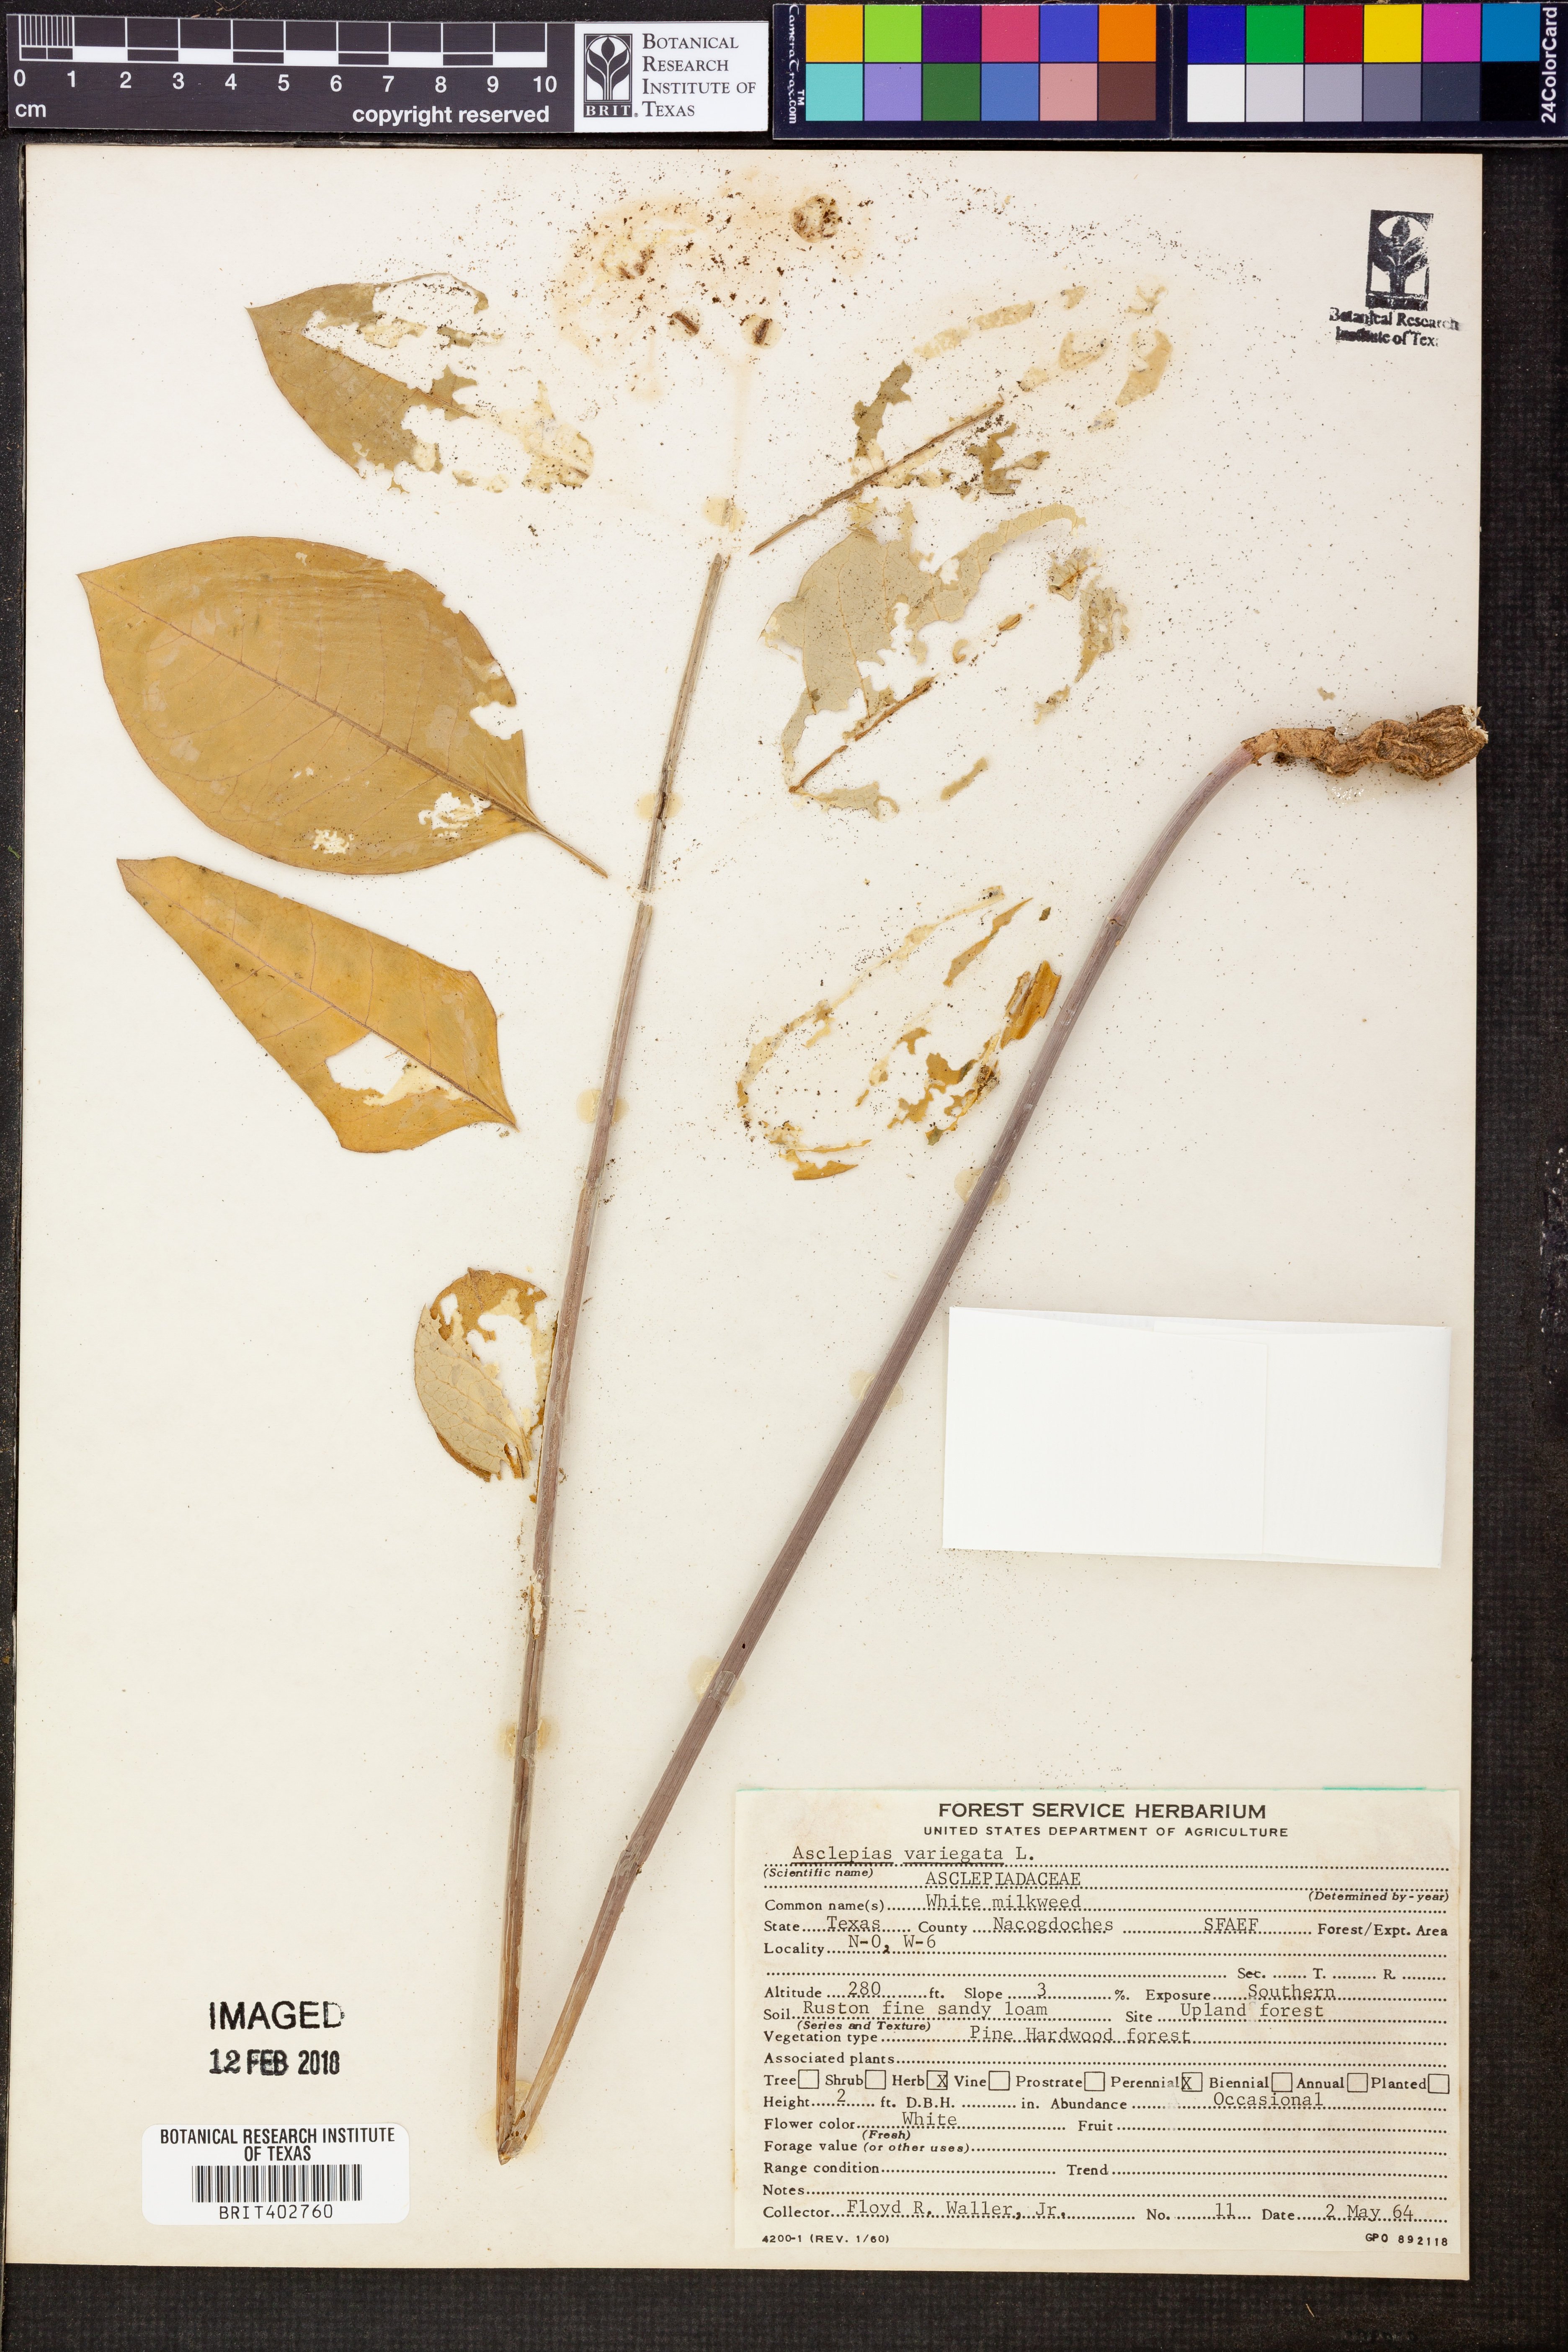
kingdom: Plantae
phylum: Tracheophyta
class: Magnoliopsida
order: Gentianales
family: Apocynaceae
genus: Asclepias
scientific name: Asclepias variegata
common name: Variegated milkweed
